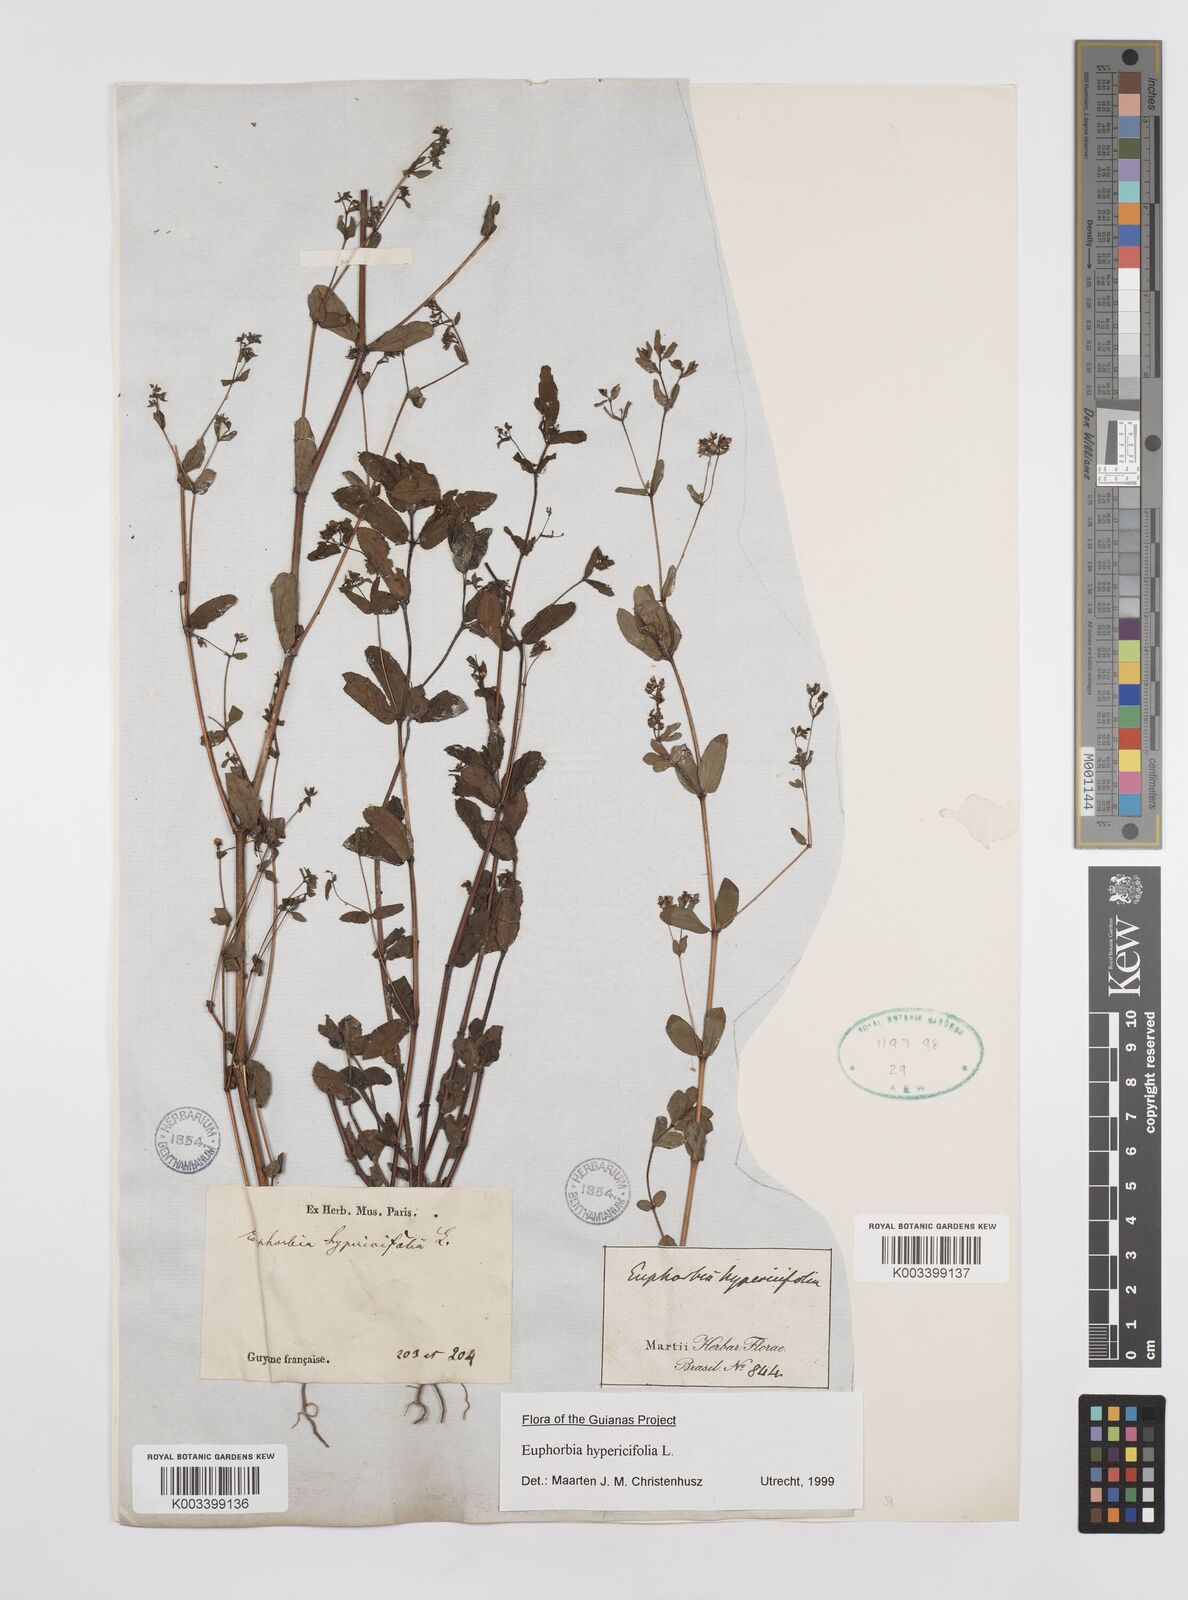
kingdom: Plantae
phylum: Tracheophyta
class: Magnoliopsida
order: Malpighiales
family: Euphorbiaceae
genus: Euphorbia
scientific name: Euphorbia hypericifolia
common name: Graceful sandmat
